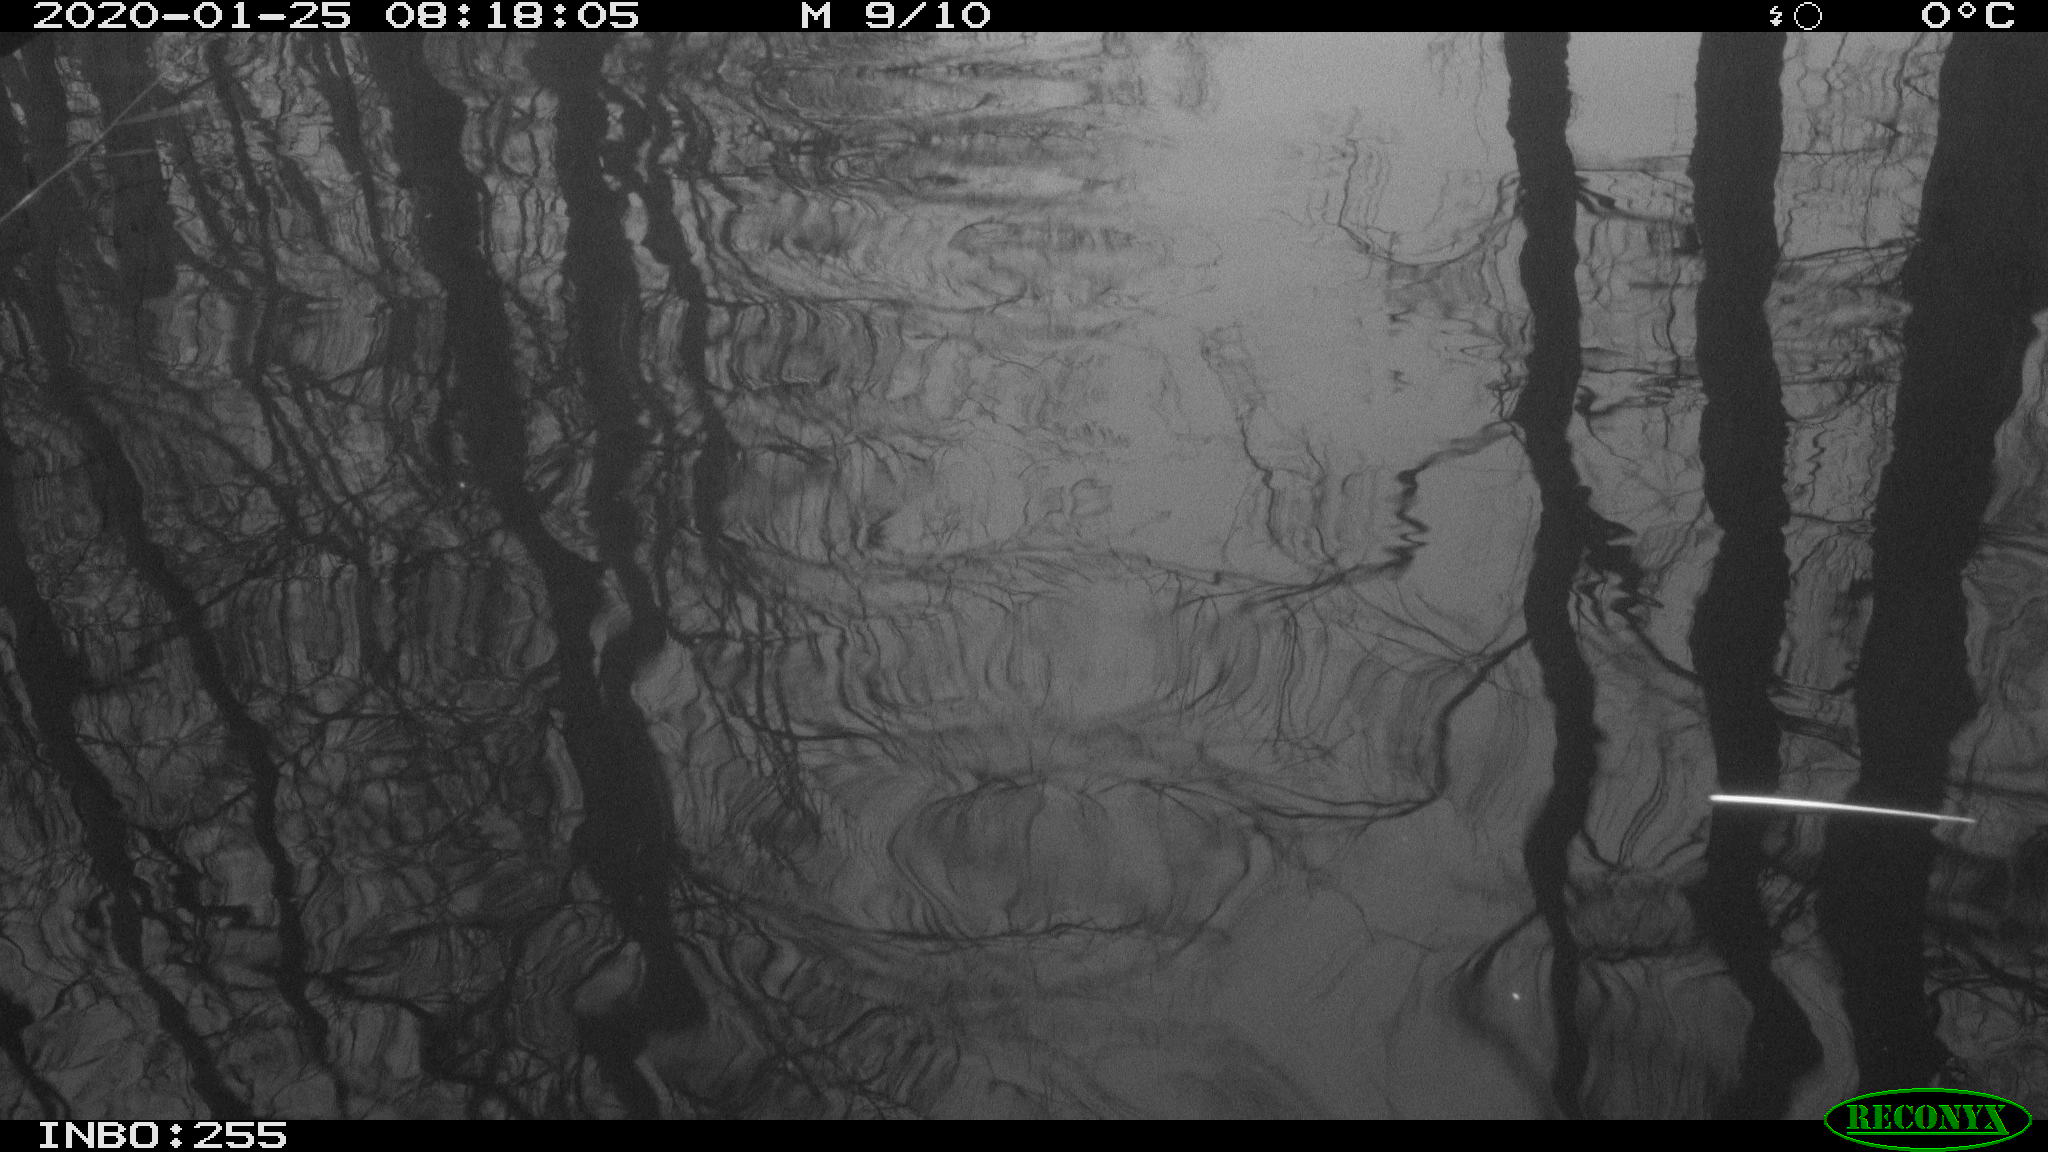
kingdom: Animalia
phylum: Chordata
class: Aves
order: Gruiformes
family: Rallidae
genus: Gallinula
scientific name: Gallinula chloropus
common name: Common moorhen
